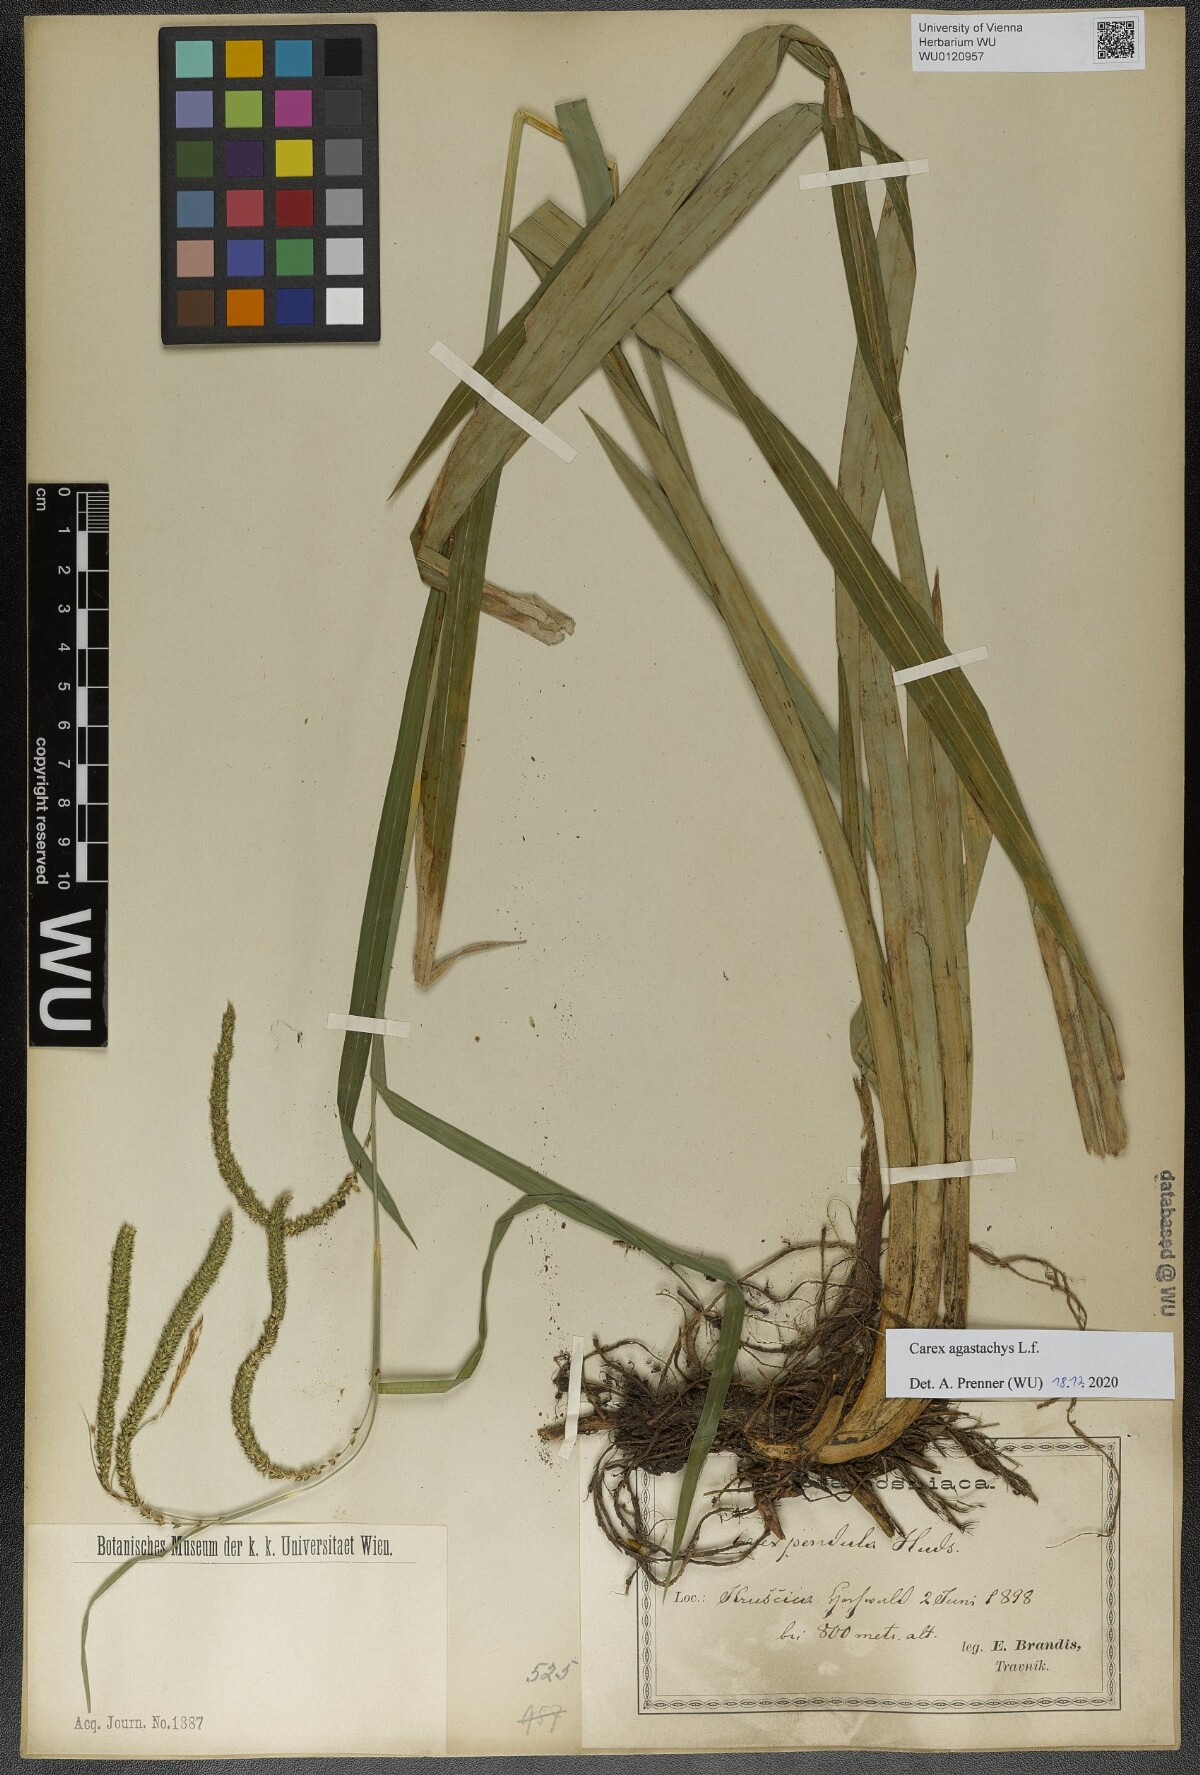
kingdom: Plantae
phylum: Tracheophyta
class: Liliopsida
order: Poales
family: Cyperaceae
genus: Carex
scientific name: Carex agastachys
